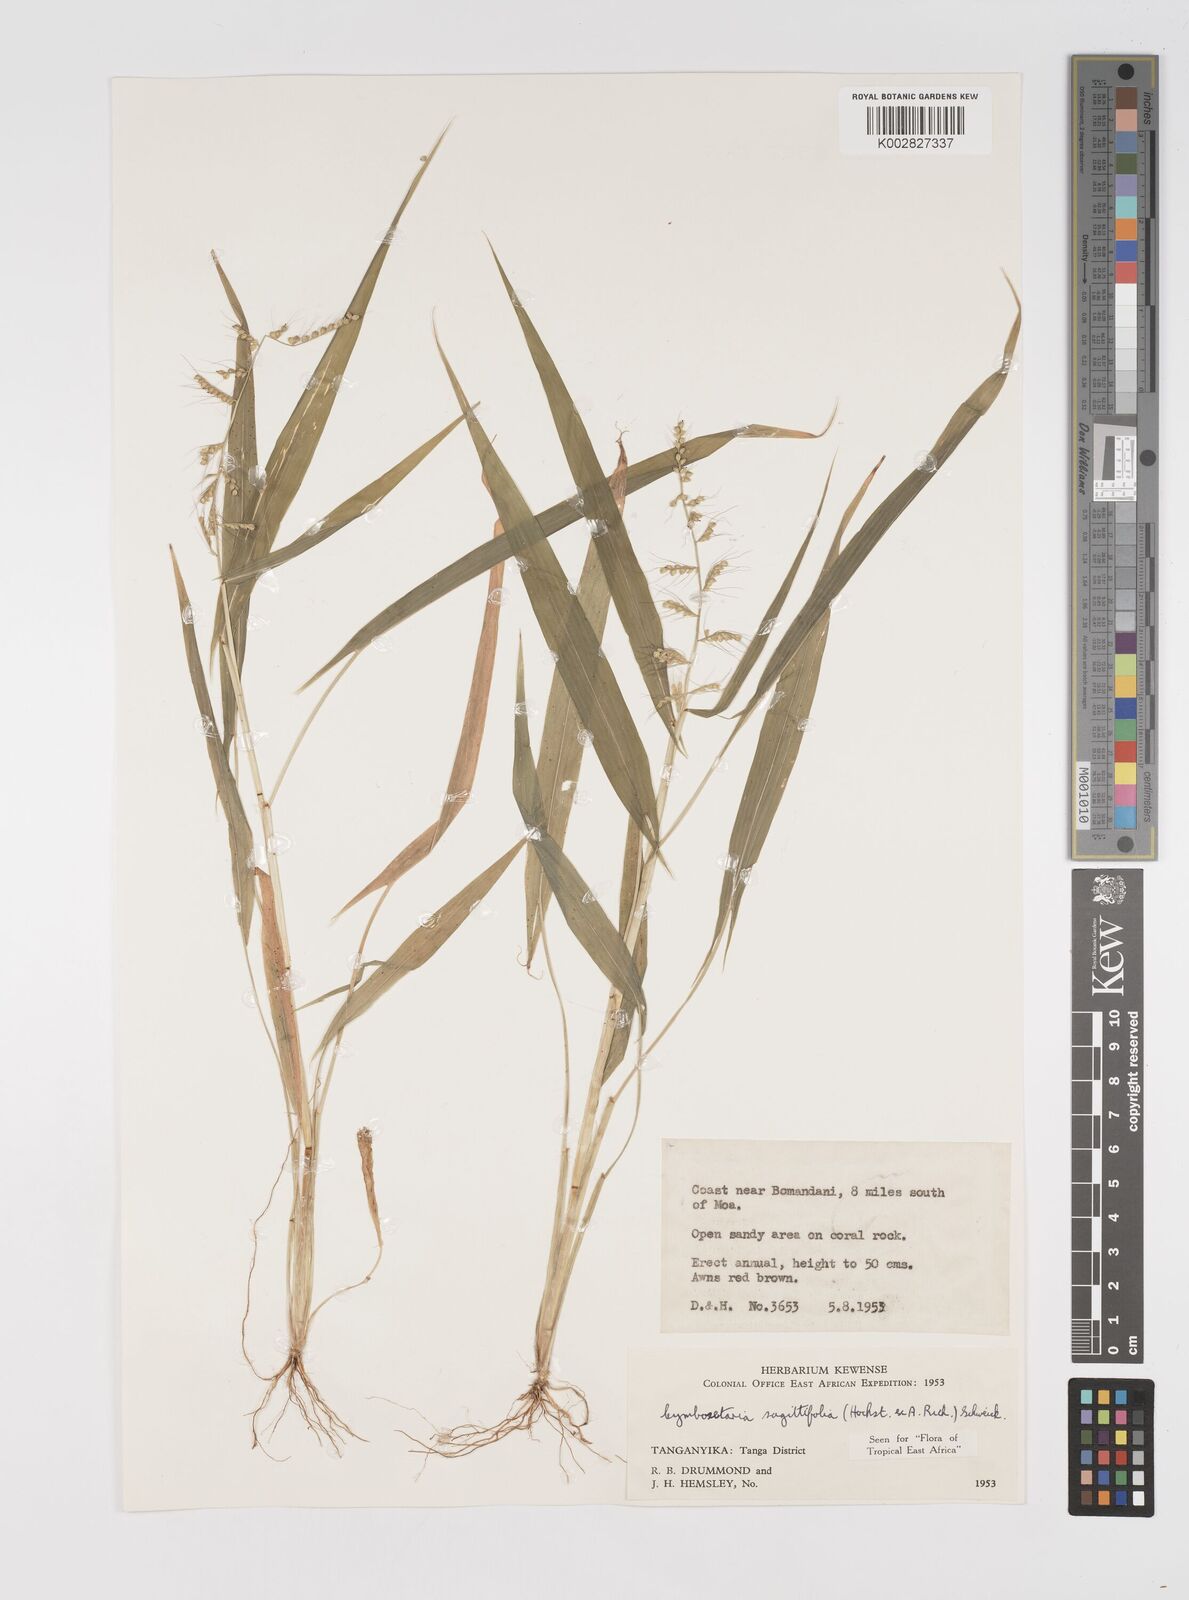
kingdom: Plantae
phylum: Tracheophyta
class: Liliopsida
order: Poales
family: Poaceae
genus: Setaria
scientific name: Setaria sagittifolia
